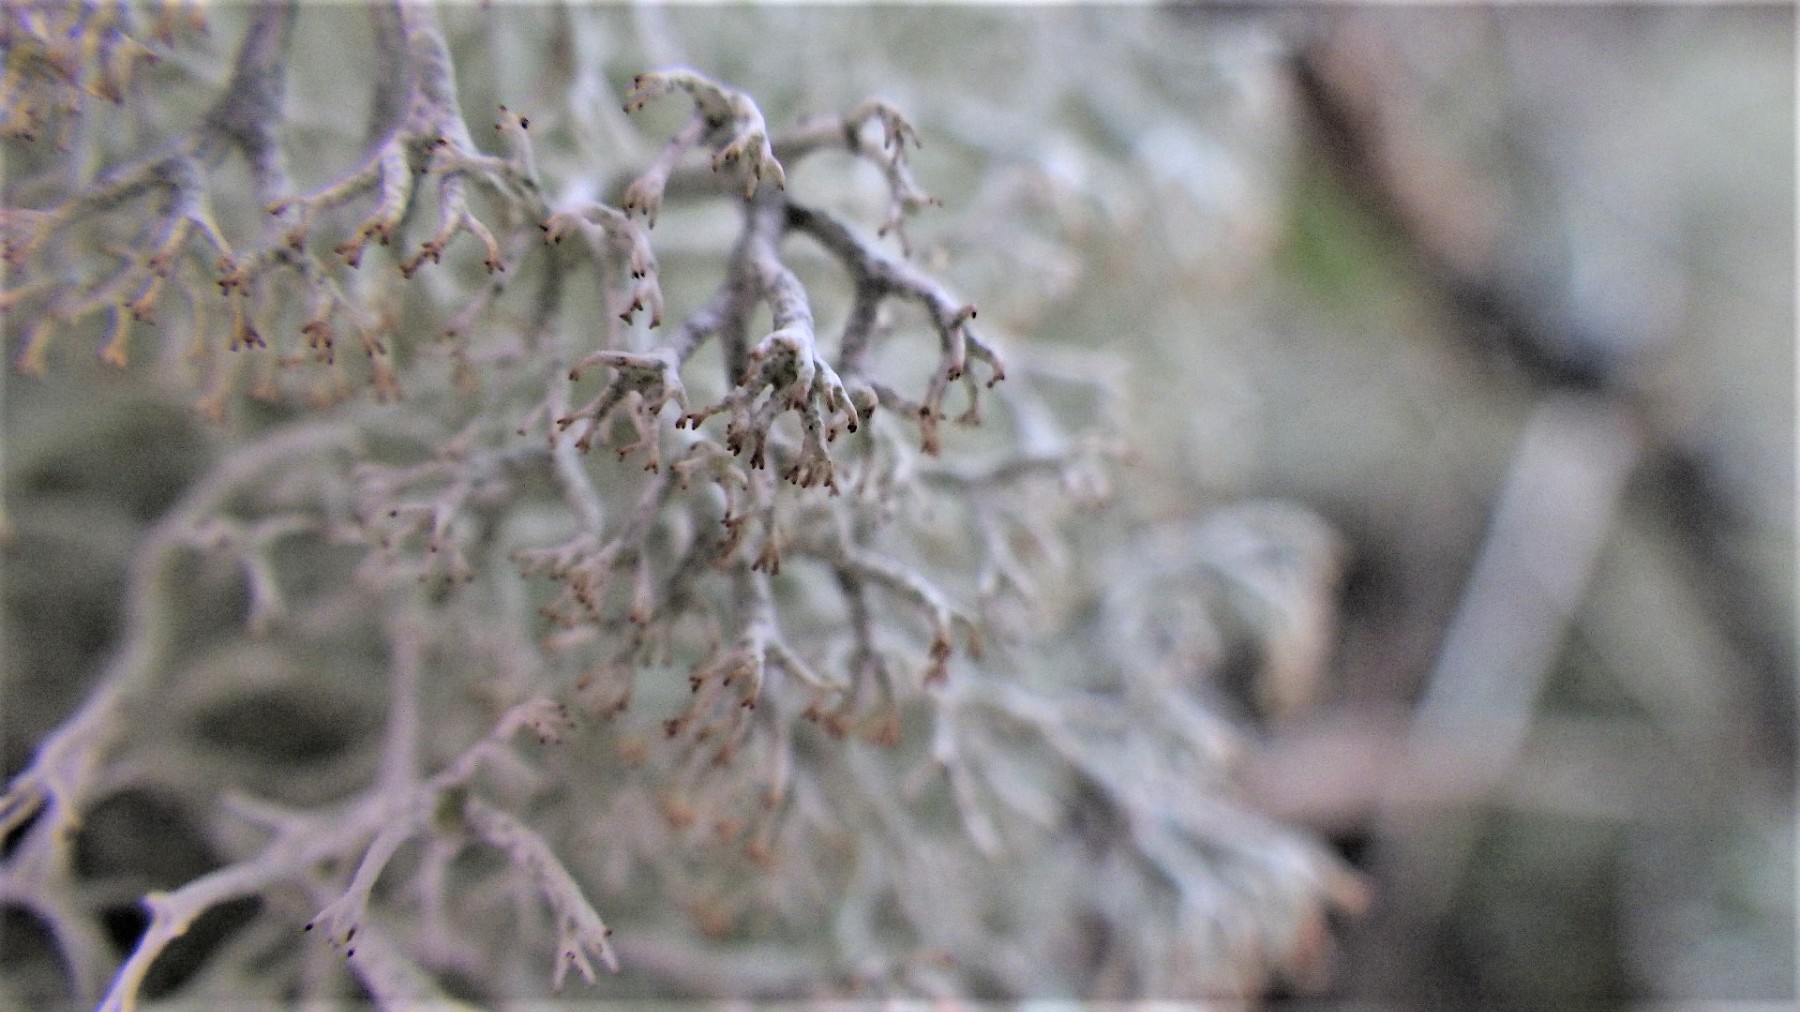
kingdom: Fungi
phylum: Ascomycota
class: Lecanoromycetes
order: Lecanorales
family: Cladoniaceae
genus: Cladonia
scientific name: Cladonia ciliata
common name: spinkel rensdyrlav
